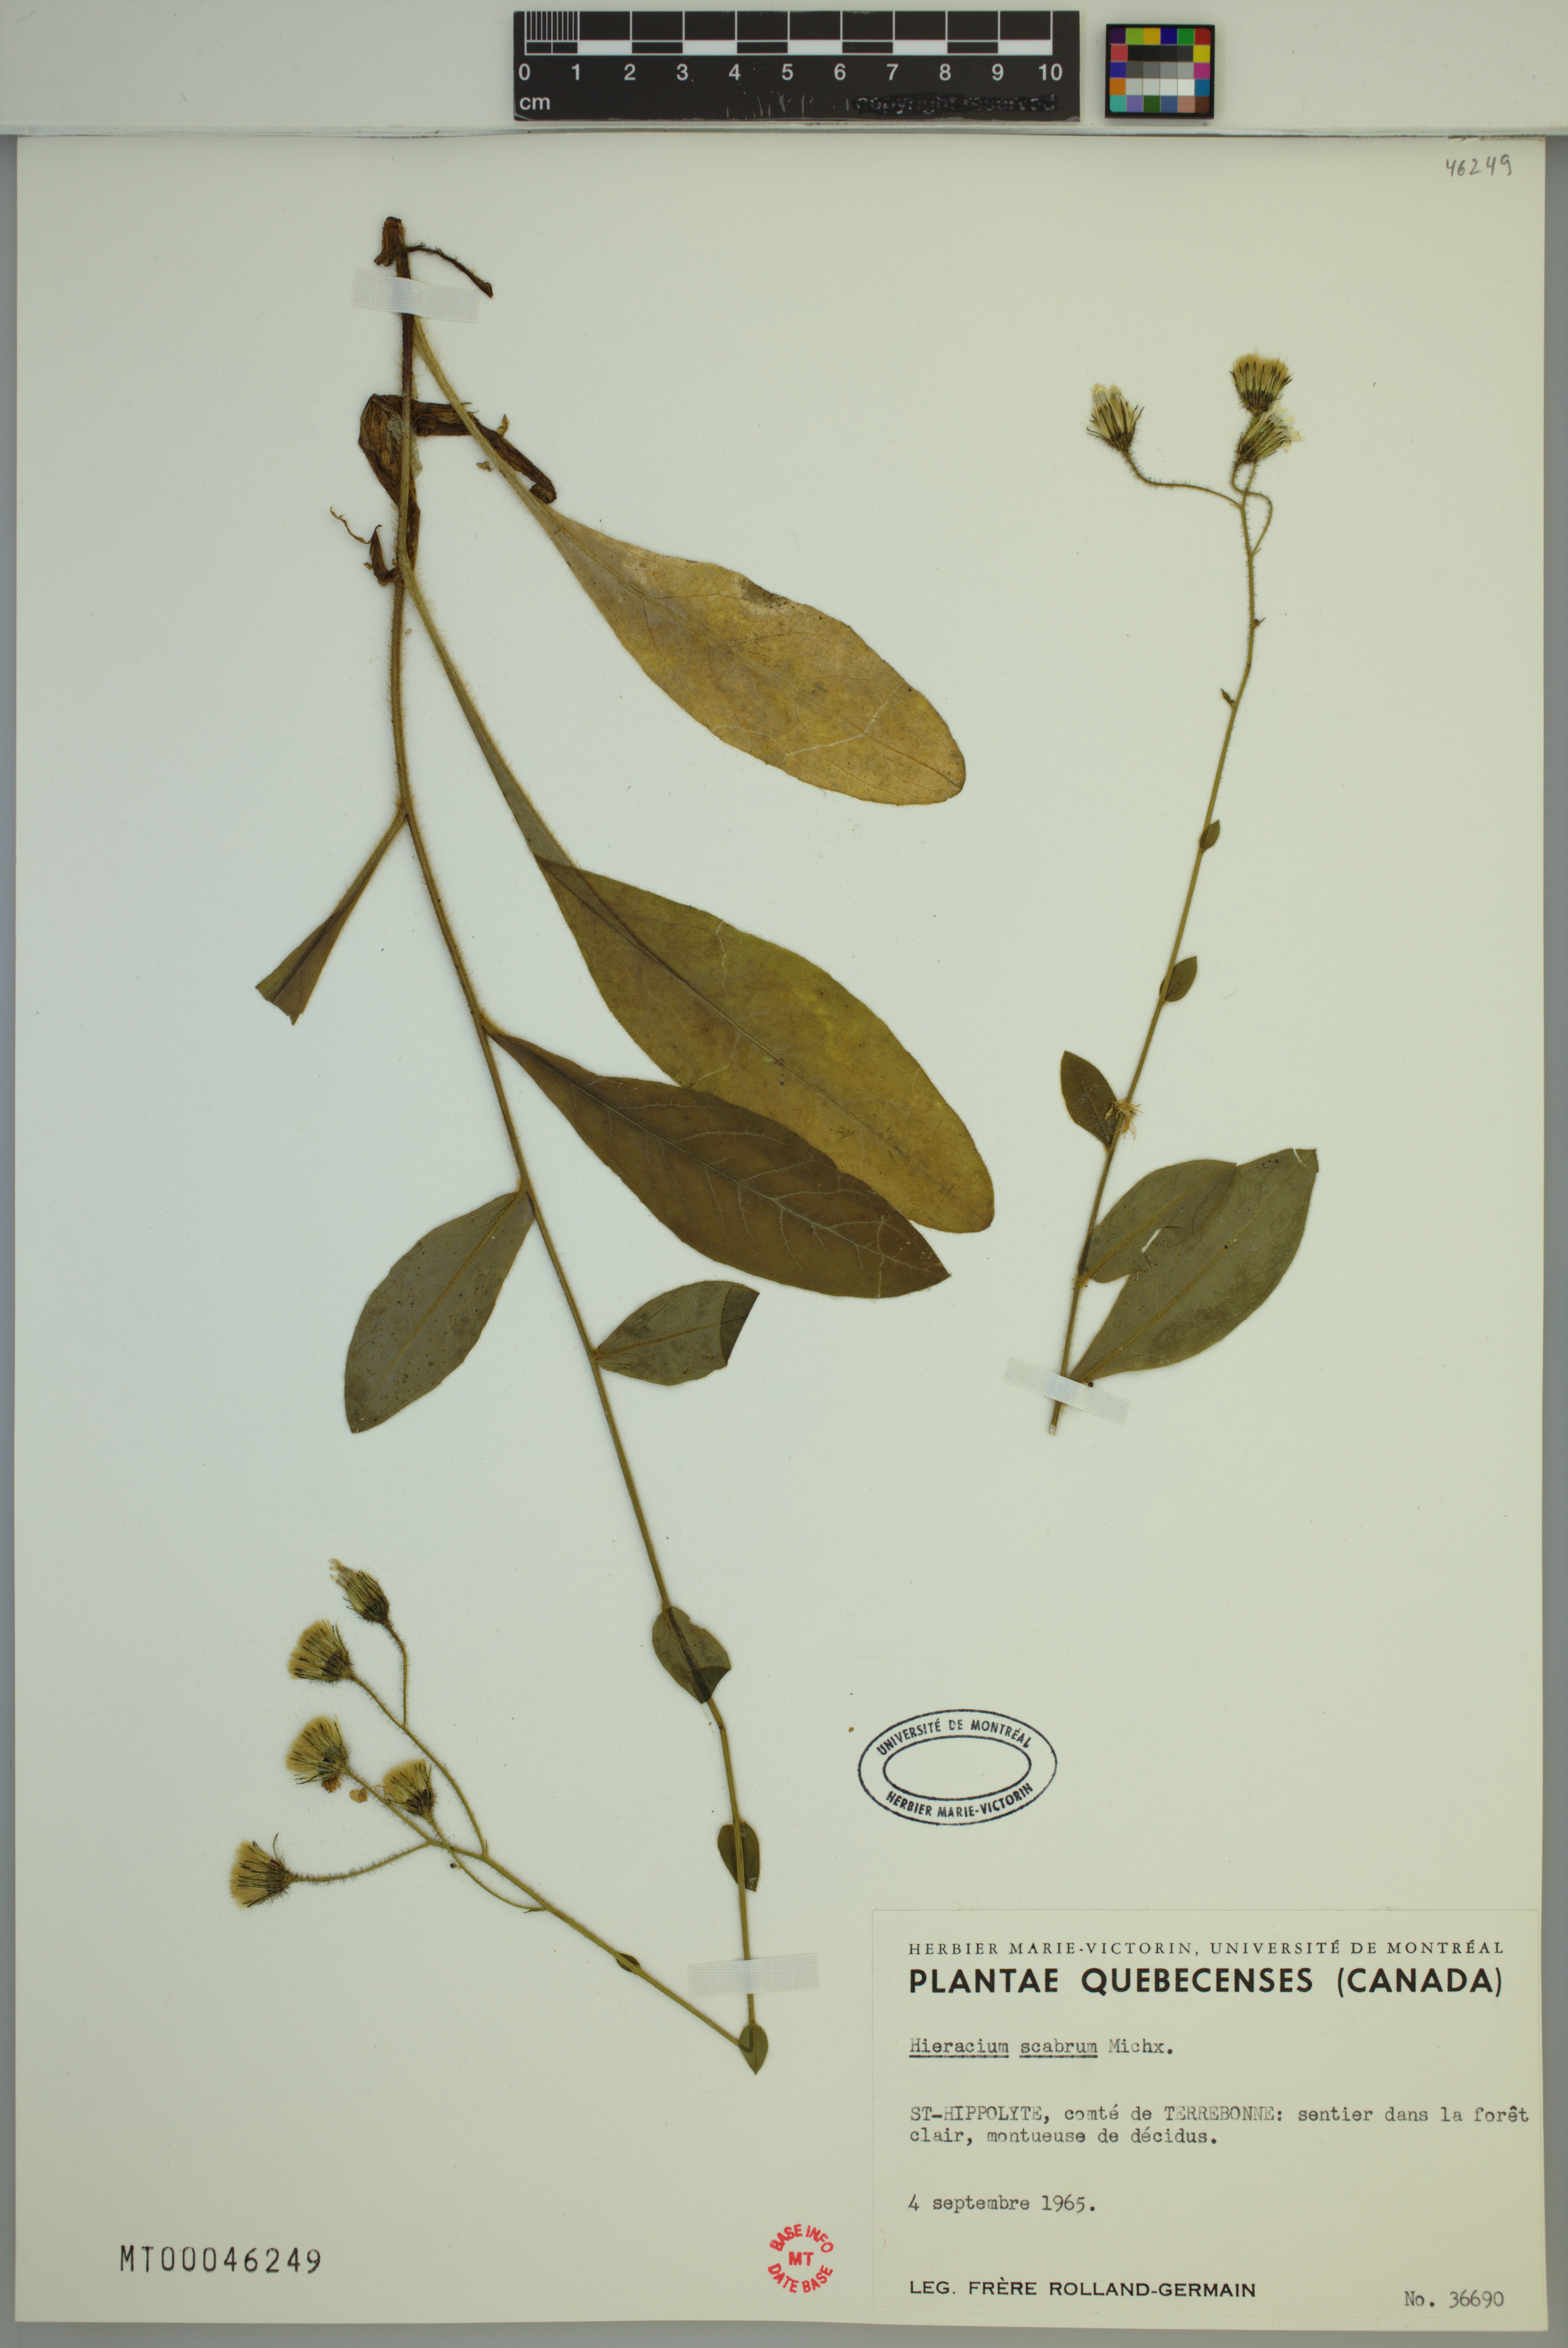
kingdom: Plantae
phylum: Tracheophyta
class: Magnoliopsida
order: Asterales
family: Asteraceae
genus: Hieracium
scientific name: Hieracium scabrum
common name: Rough hawkweed
